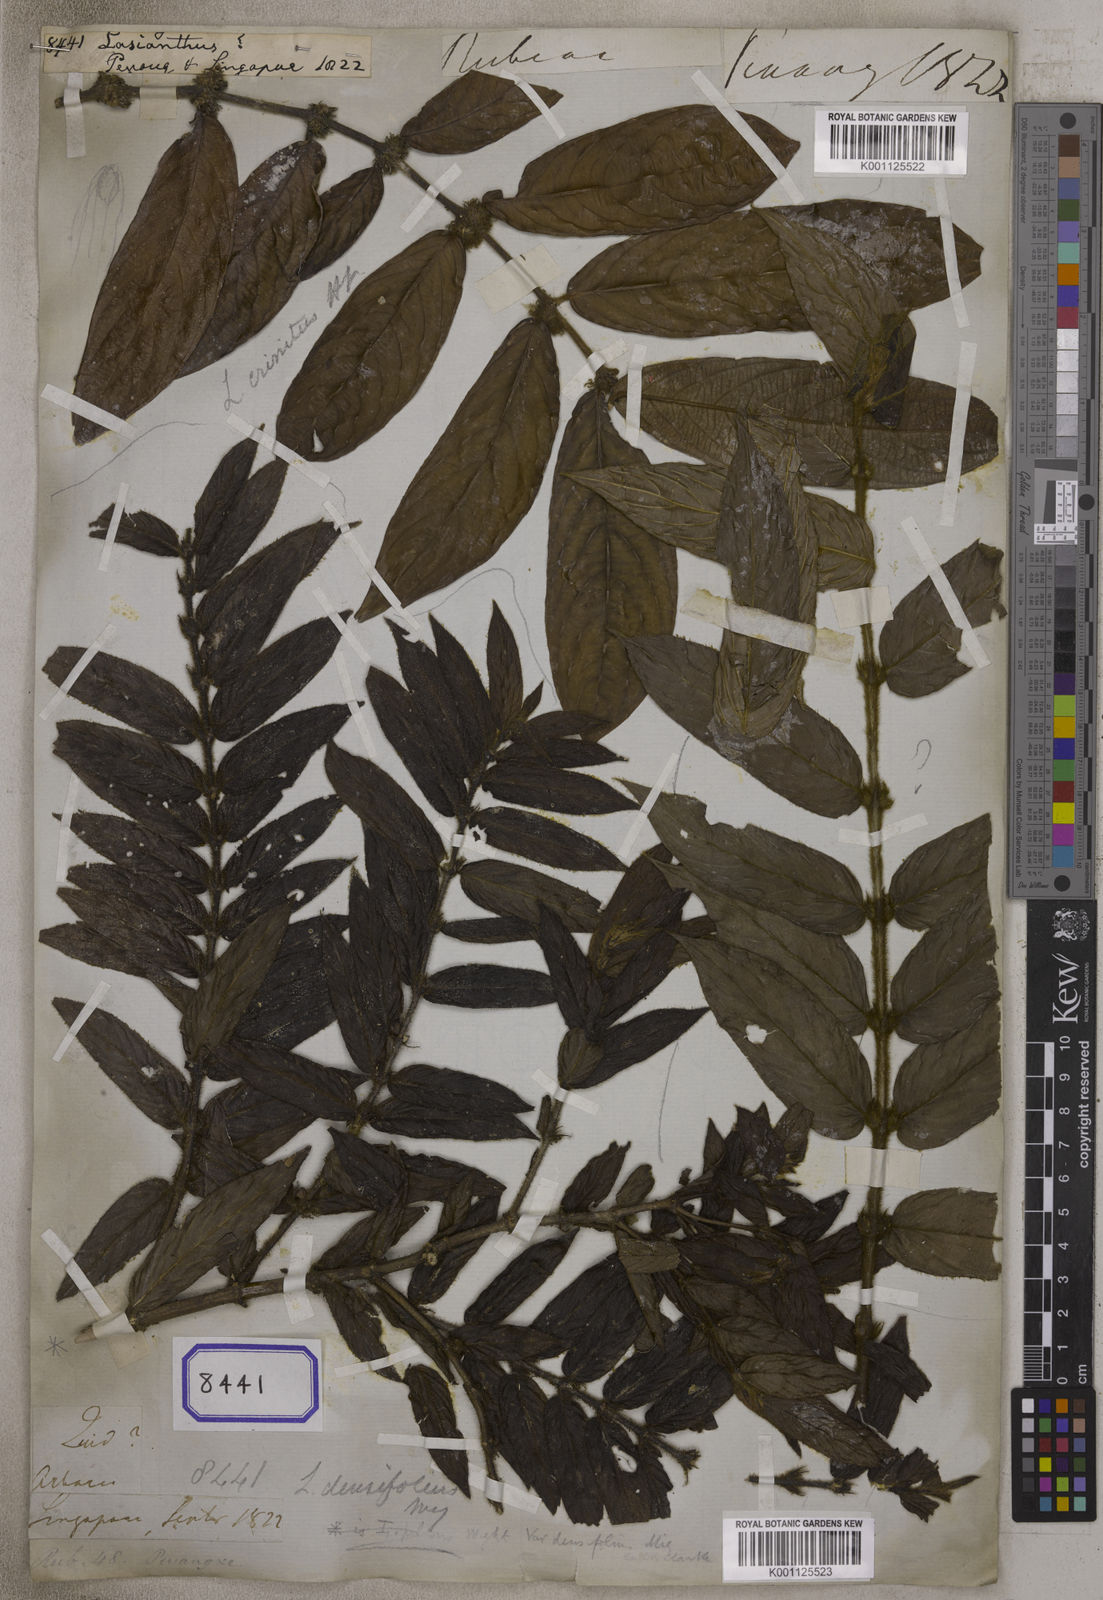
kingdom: Plantae
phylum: Tracheophyta
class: Magnoliopsida
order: Gentianales
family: Rubiaceae
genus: Lasianthus
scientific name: Lasianthus
